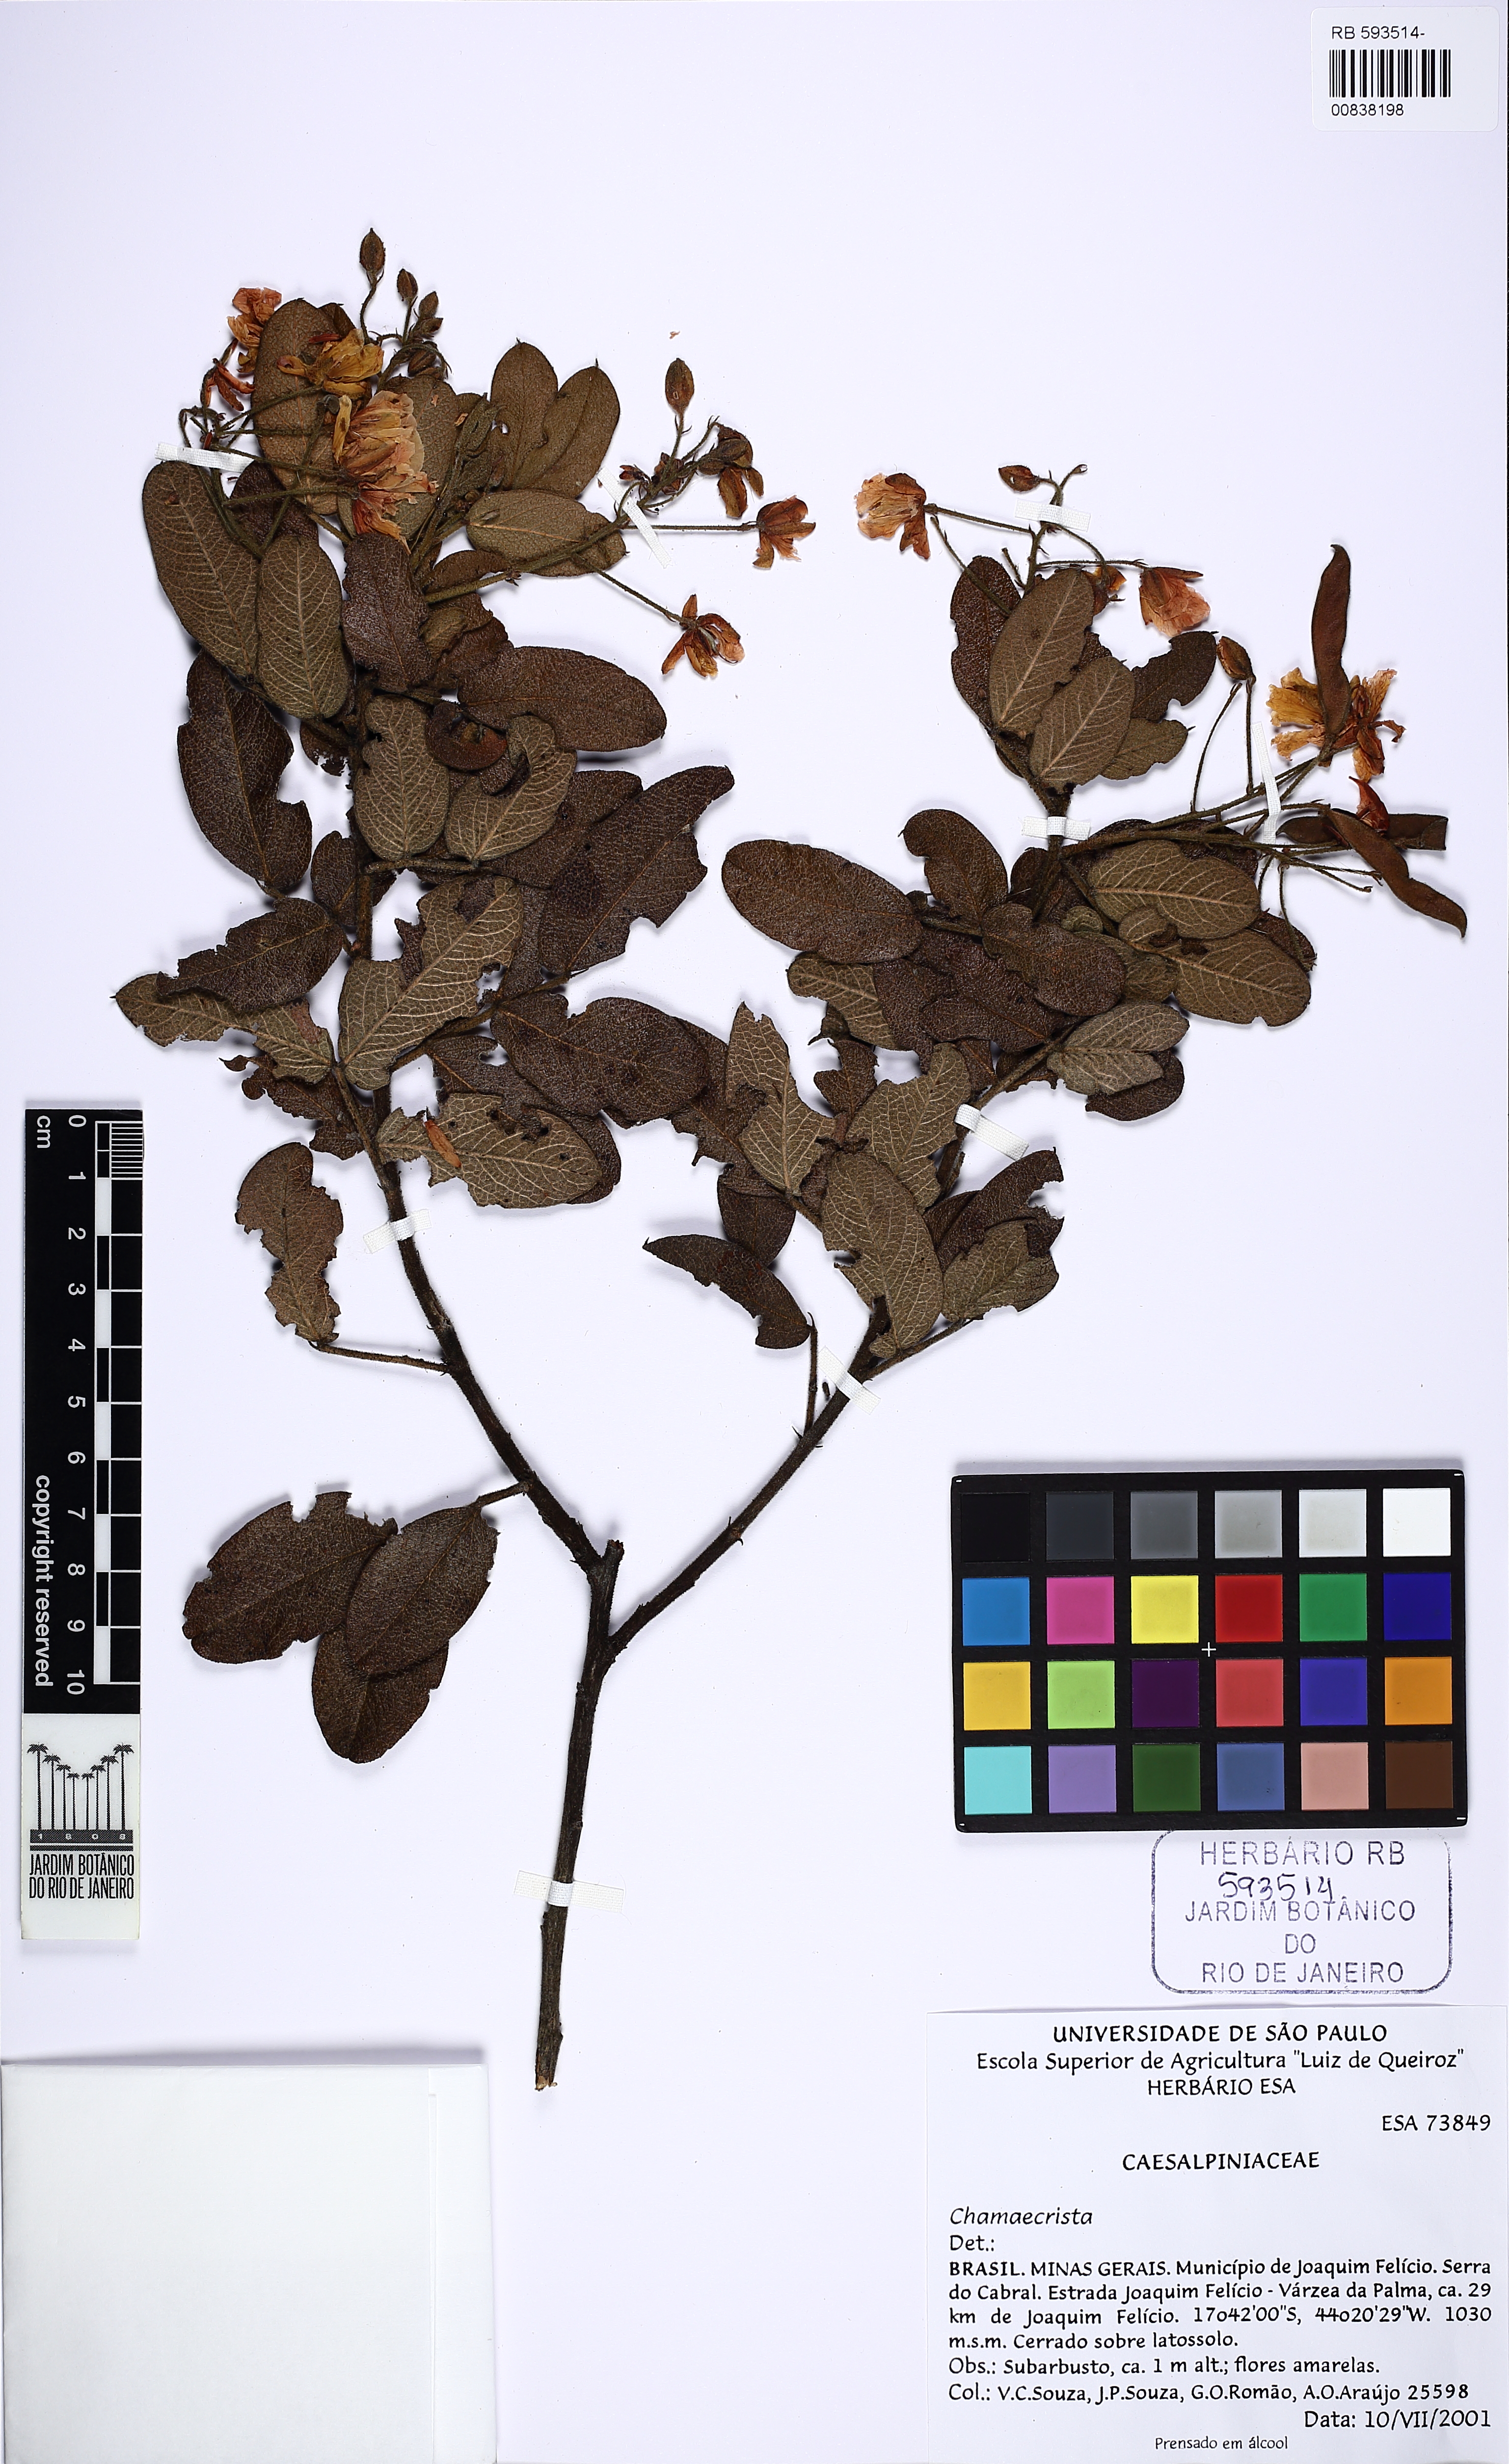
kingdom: Plantae
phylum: Tracheophyta
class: Magnoliopsida
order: Fabales
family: Fabaceae
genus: Chamaecrista
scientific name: Chamaecrista
